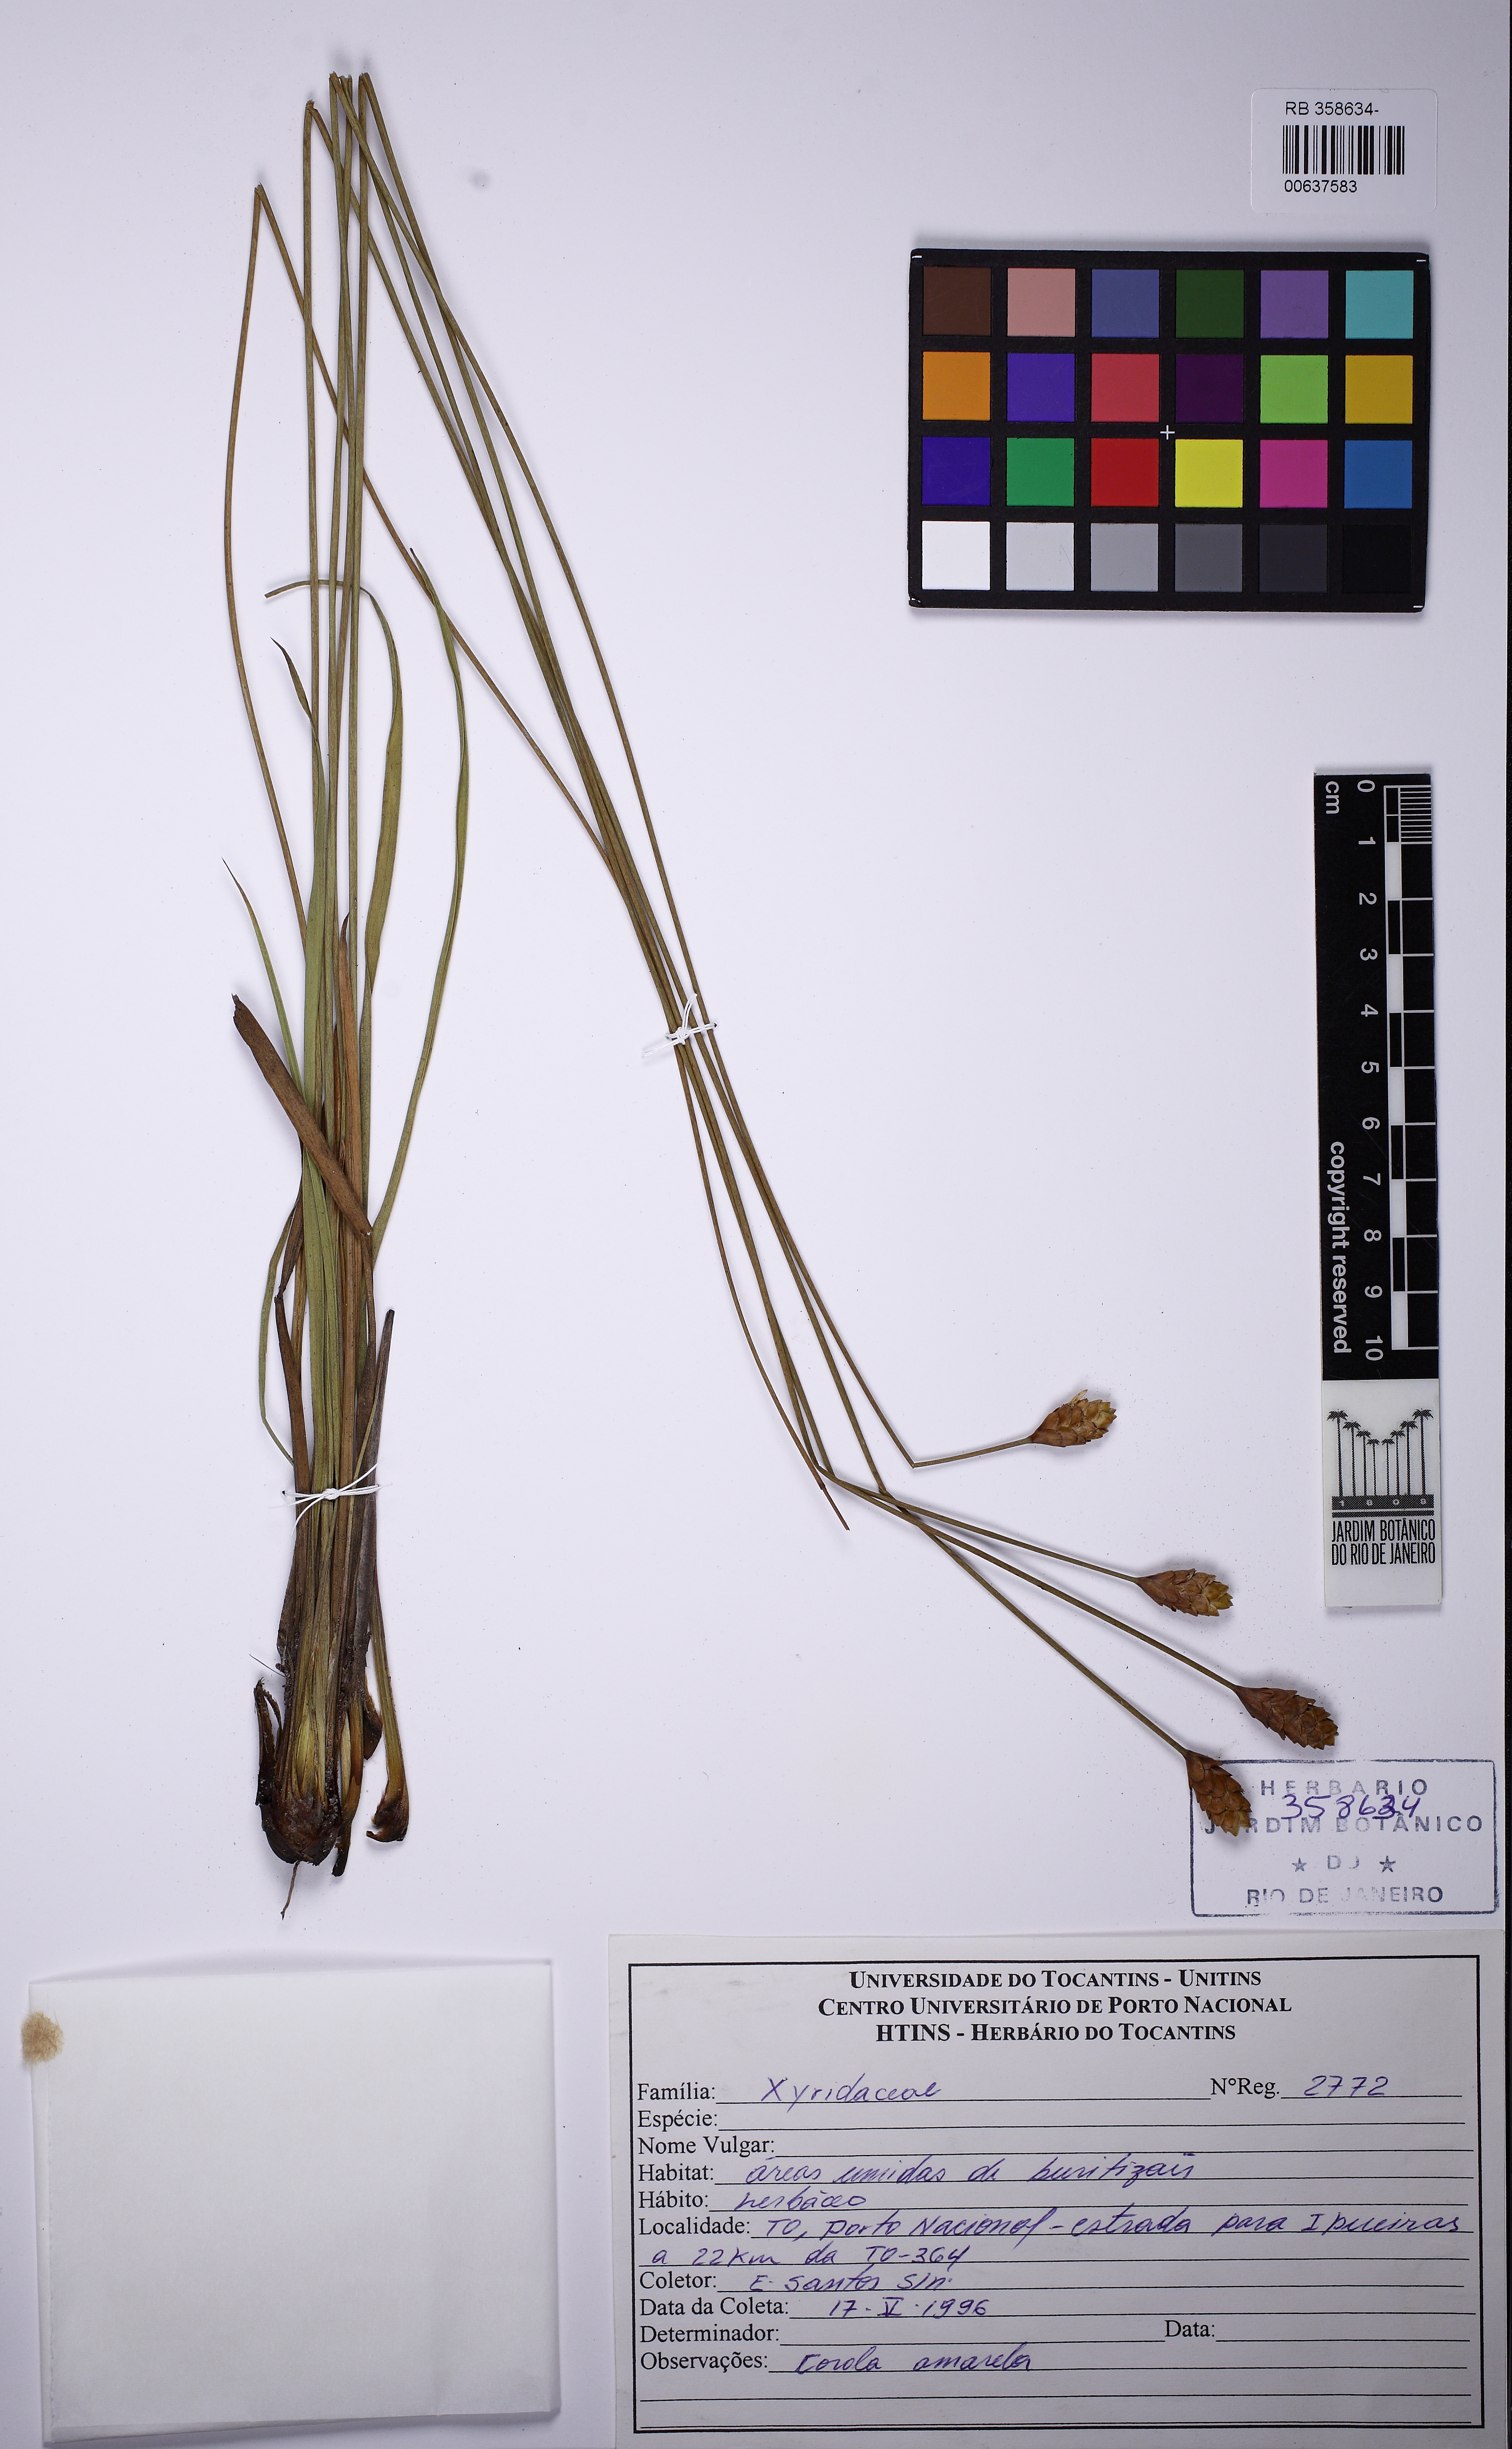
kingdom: Plantae
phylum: Tracheophyta
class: Liliopsida
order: Poales
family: Xyridaceae
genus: Xyris
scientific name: Xyris glandacea
